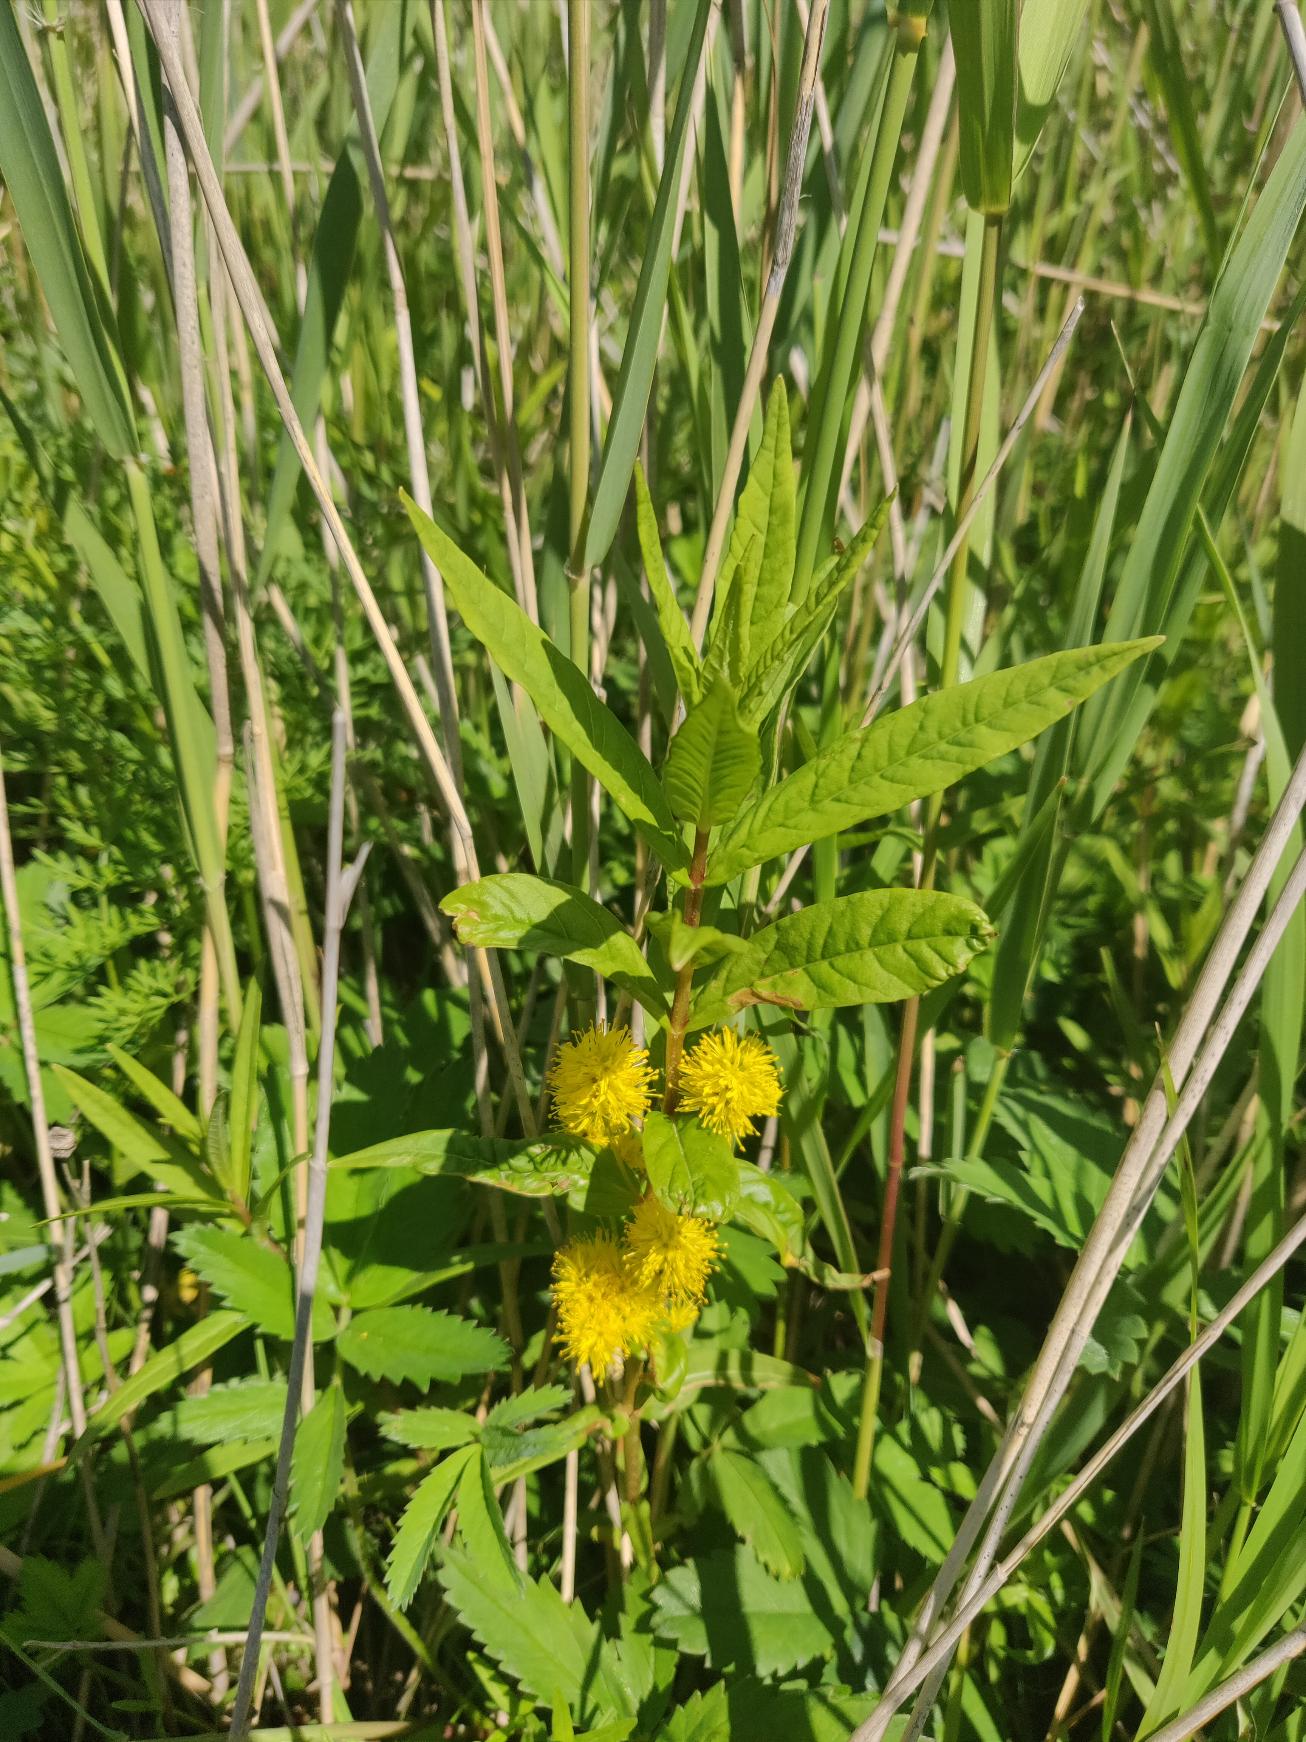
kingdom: Plantae
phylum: Tracheophyta
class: Magnoliopsida
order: Ericales
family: Primulaceae
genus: Lysimachia
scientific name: Lysimachia thyrsiflora
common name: Dusk-fredløs
